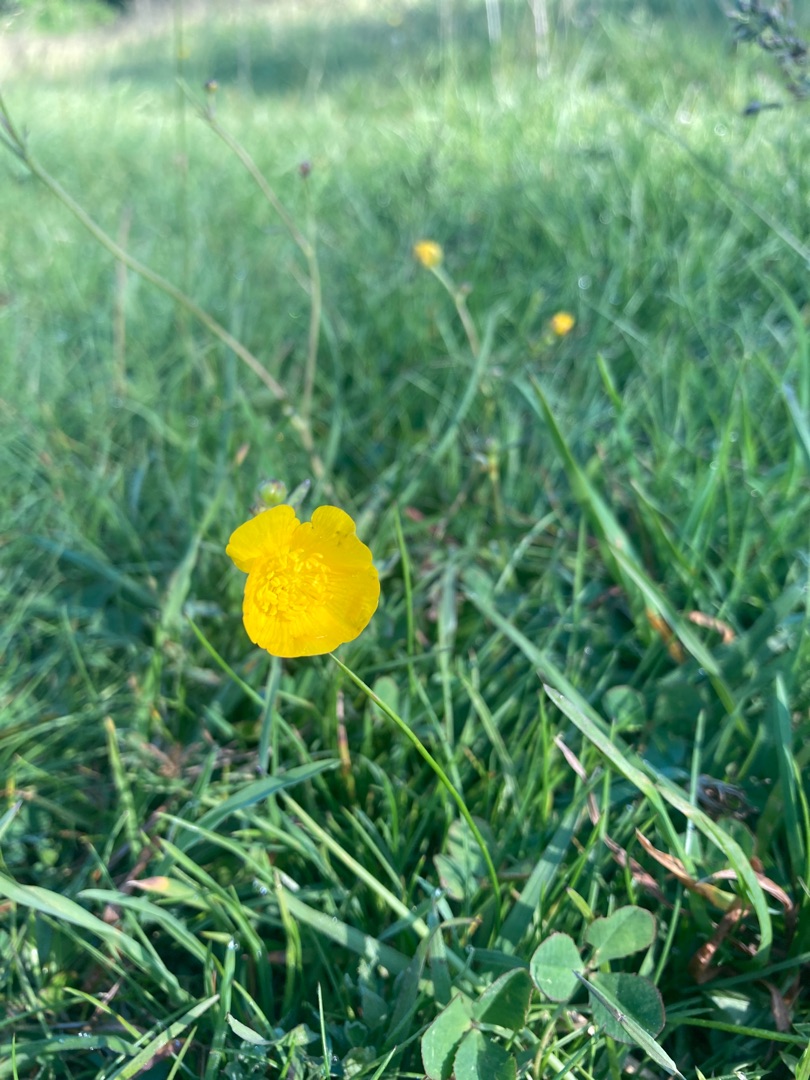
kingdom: Plantae
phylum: Tracheophyta
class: Magnoliopsida
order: Ranunculales
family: Ranunculaceae
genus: Ranunculus
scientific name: Ranunculus acris
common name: Bidende ranunkel
